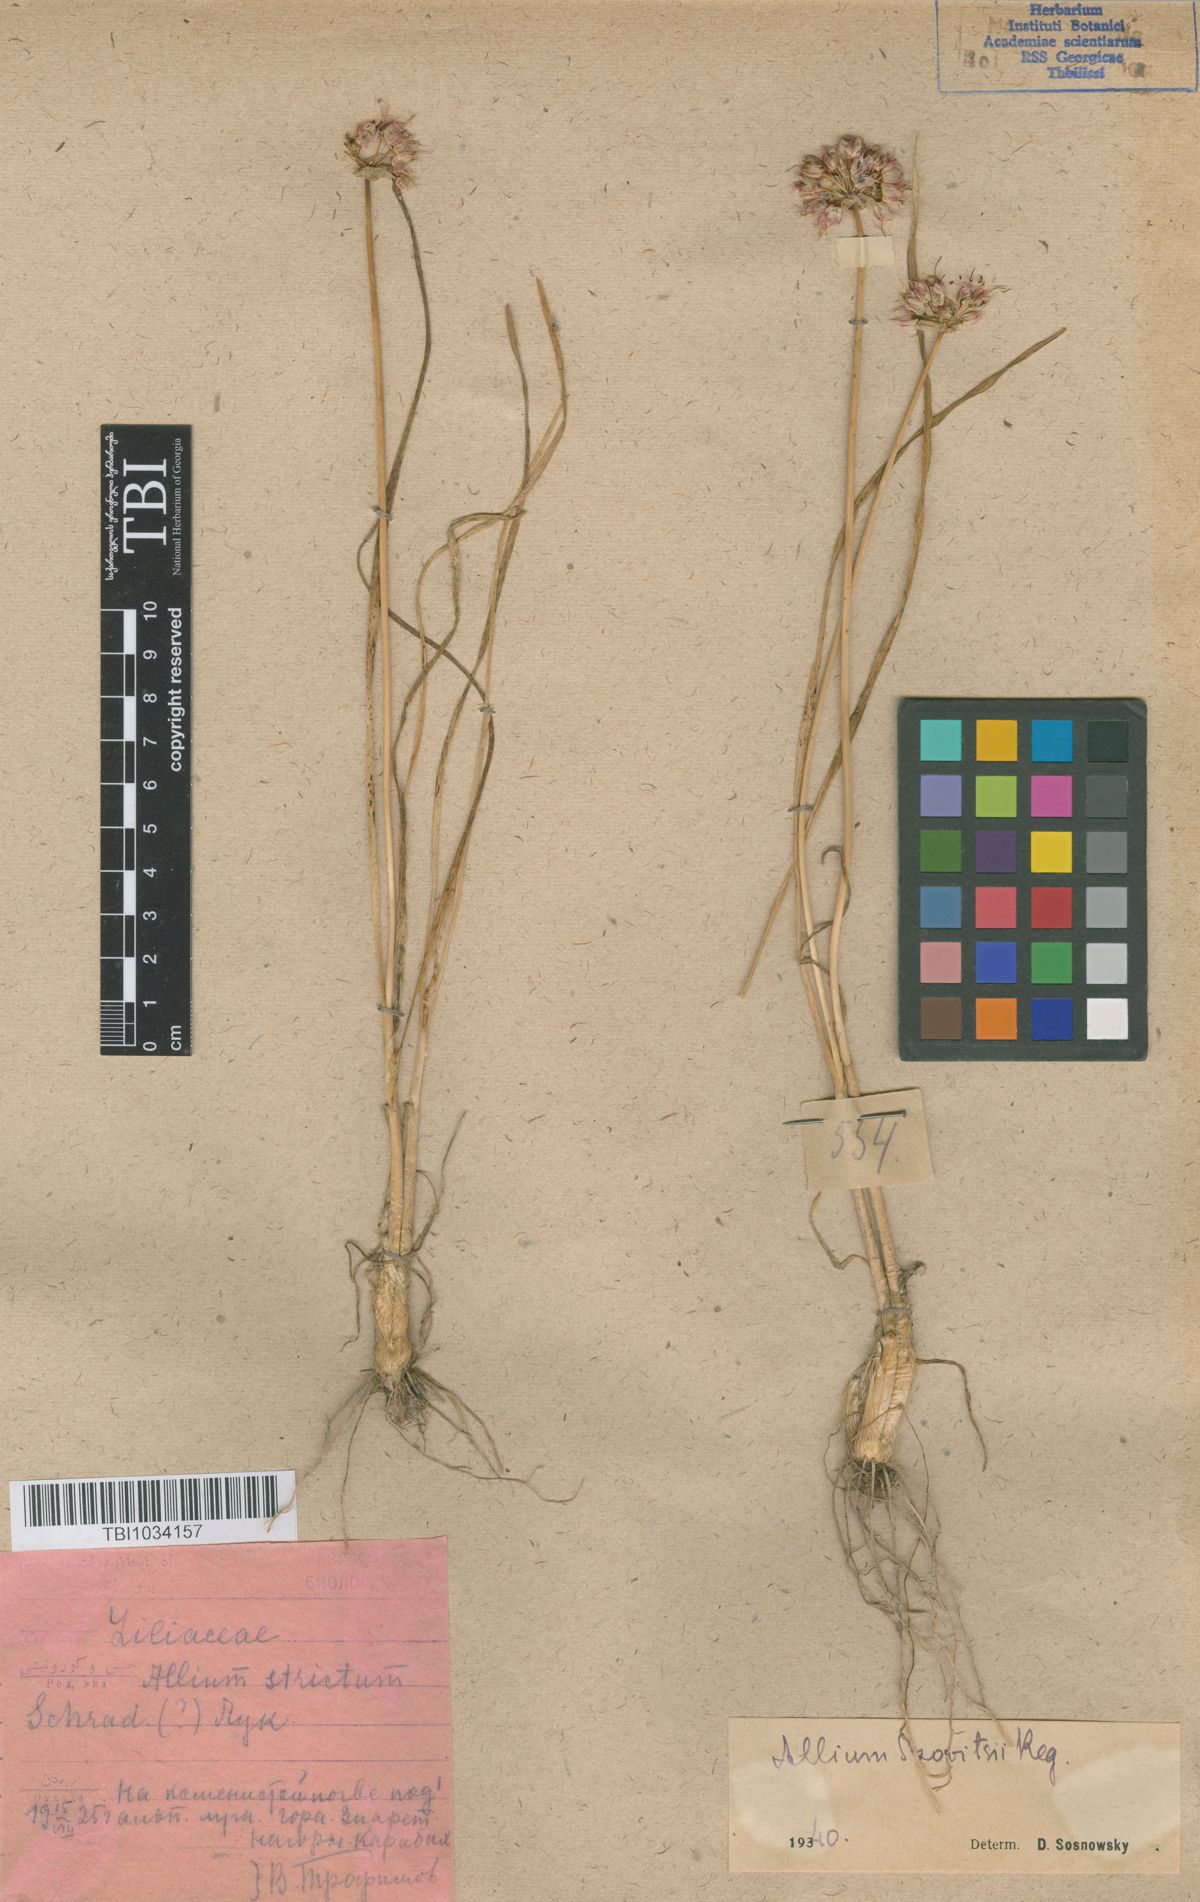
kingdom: Plantae
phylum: Tracheophyta
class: Liliopsida
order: Asparagales
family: Amaryllidaceae
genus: Allium
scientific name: Allium szovitsii
